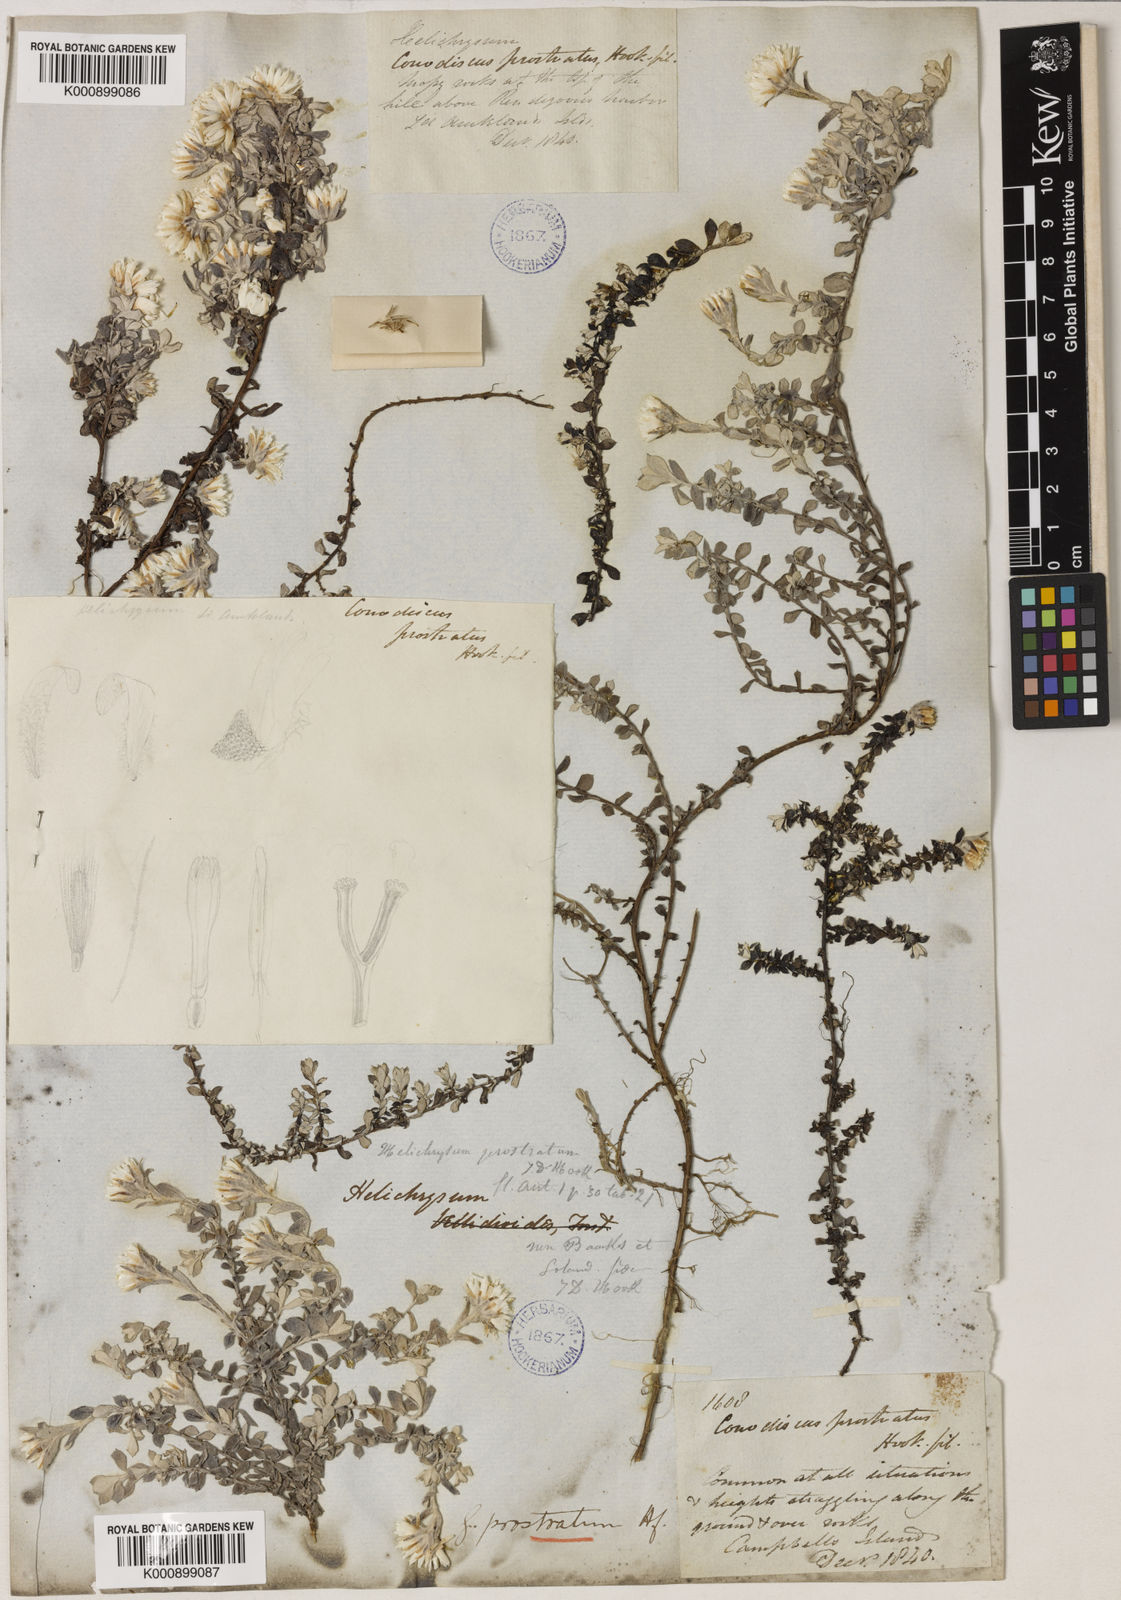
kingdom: Plantae
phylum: Tracheophyta
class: Magnoliopsida
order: Asterales
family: Asteraceae
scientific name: Asteraceae
